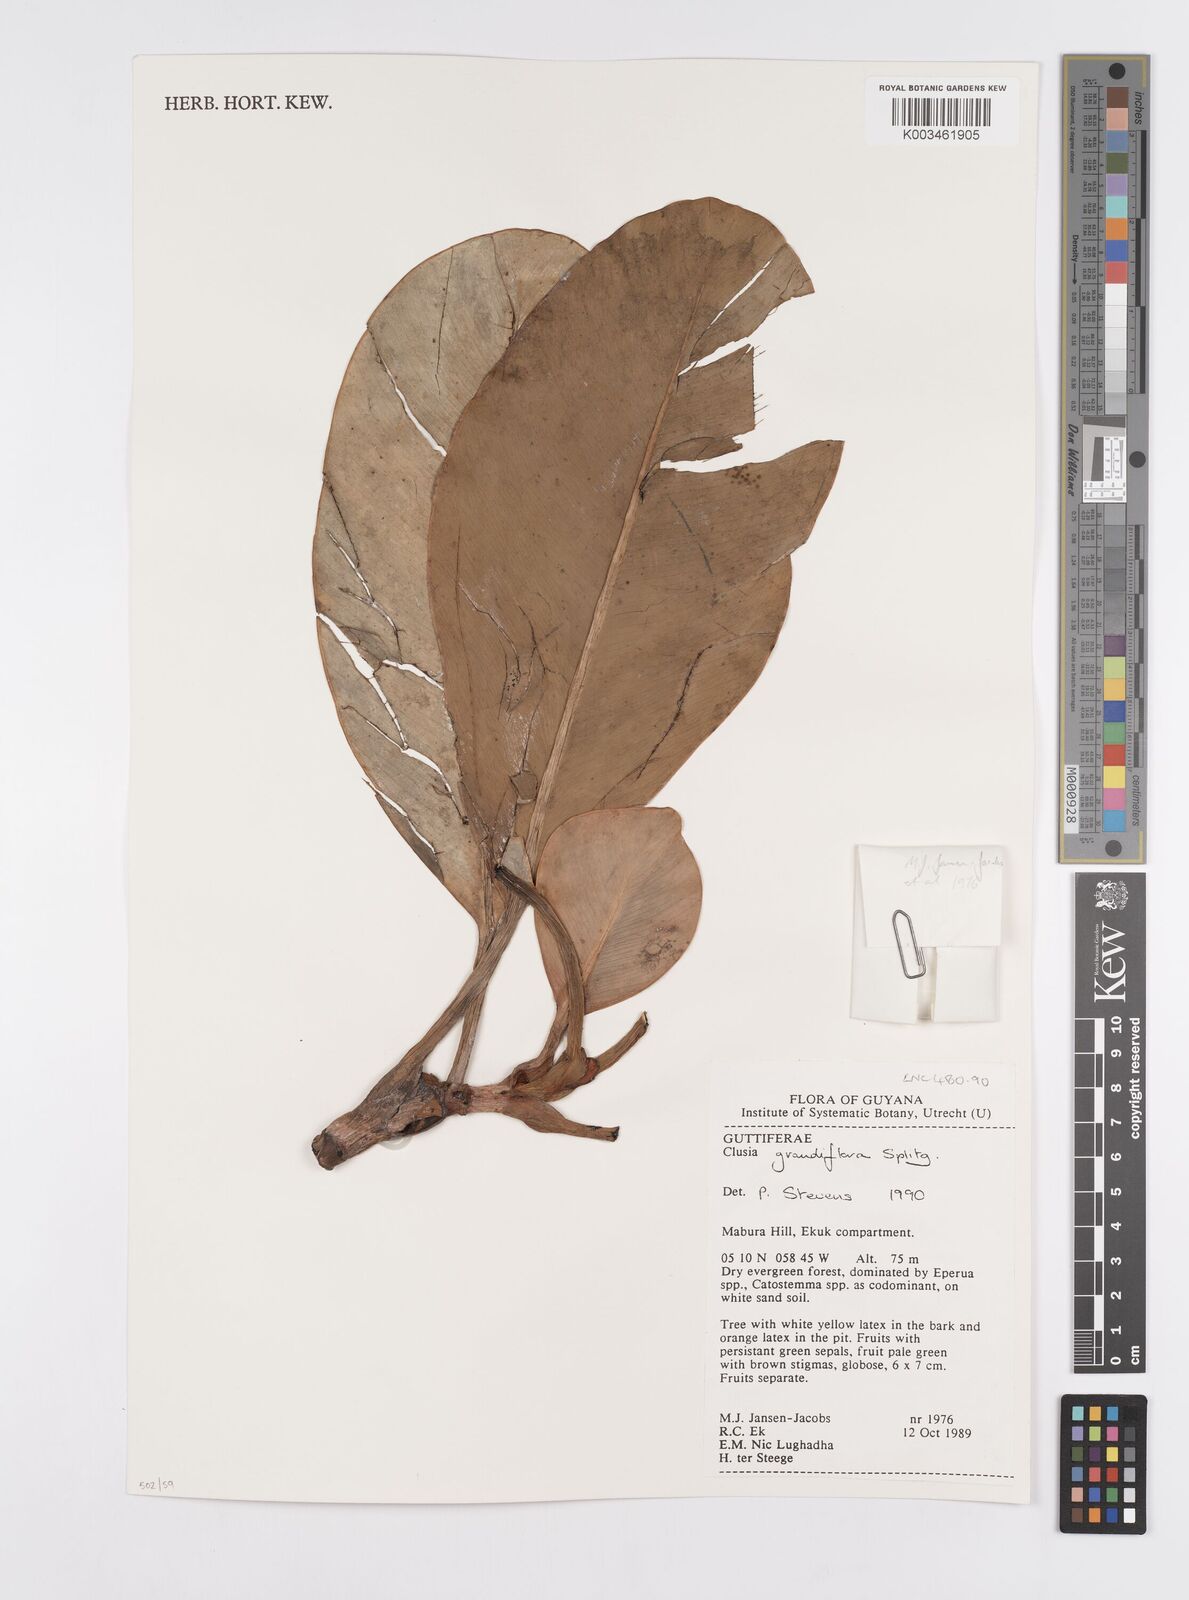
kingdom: Plantae
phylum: Tracheophyta
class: Magnoliopsida
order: Malpighiales
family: Clusiaceae
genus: Clusia
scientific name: Clusia grandiflora
